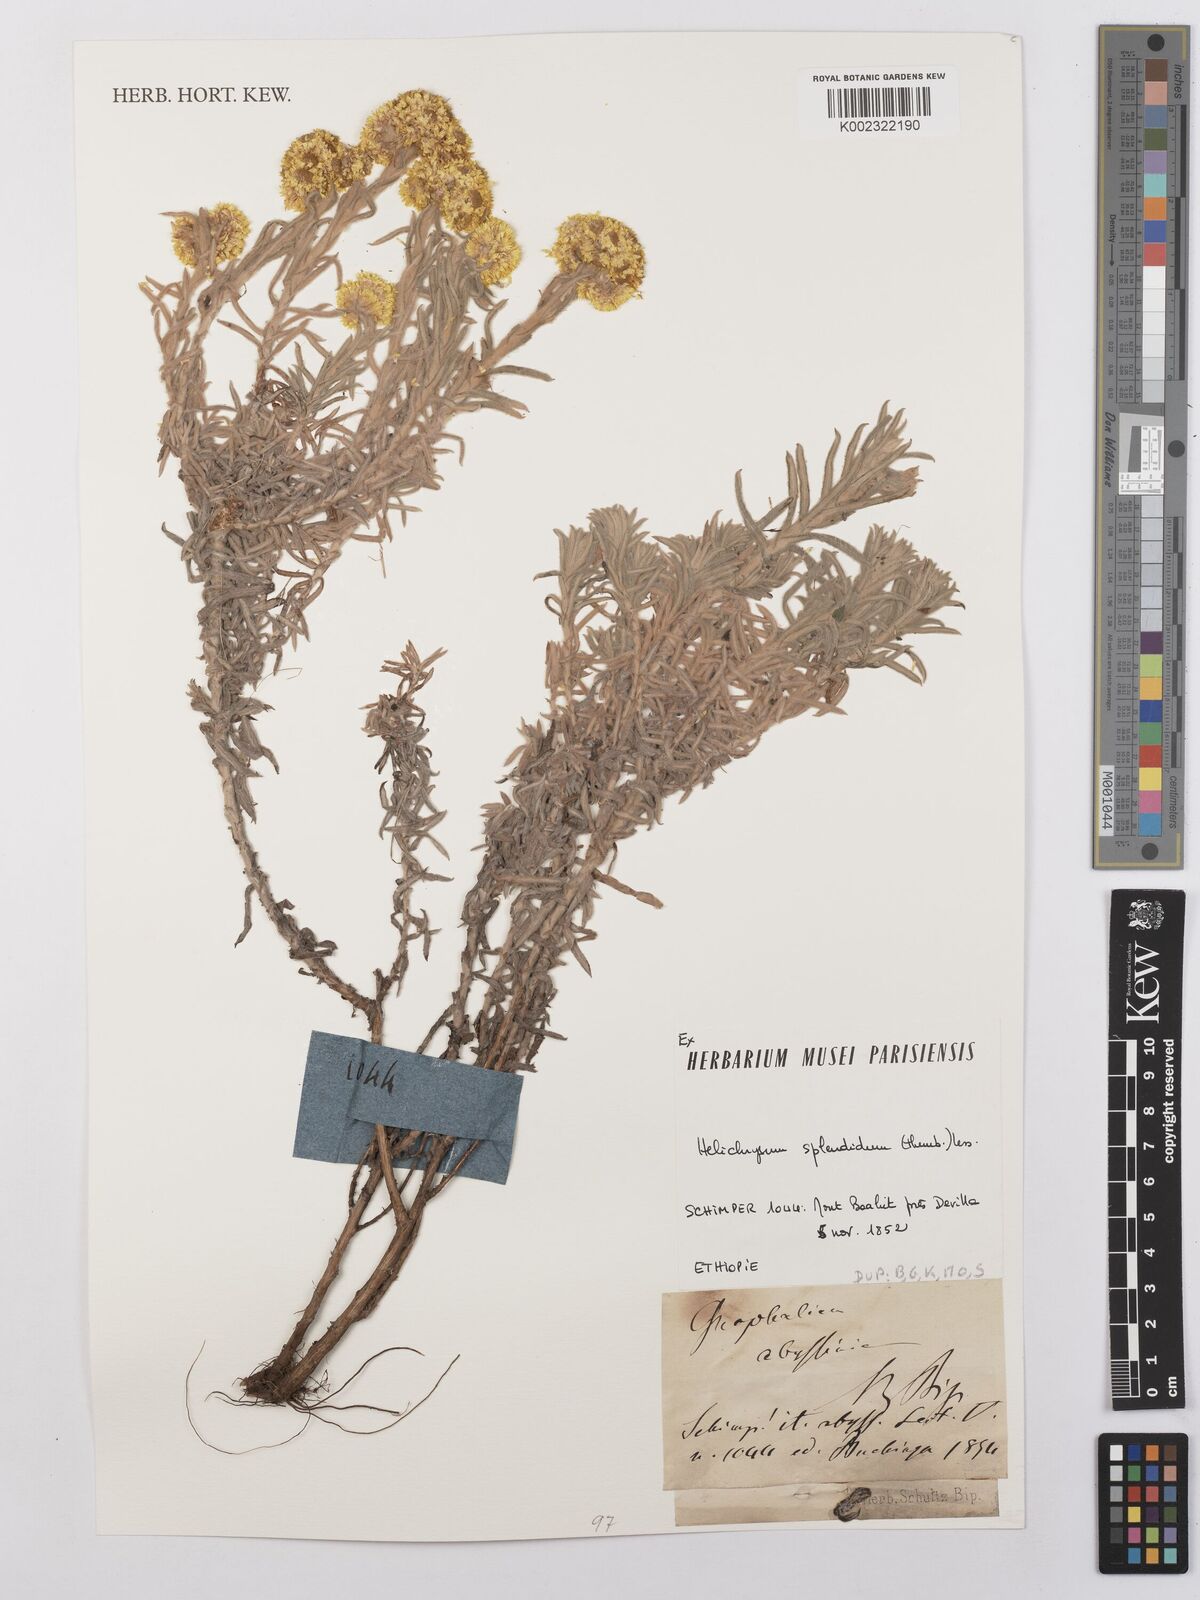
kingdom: Plantae
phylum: Tracheophyta
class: Magnoliopsida
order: Asterales
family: Asteraceae
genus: Helichrysum
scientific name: Helichrysum splendidum
